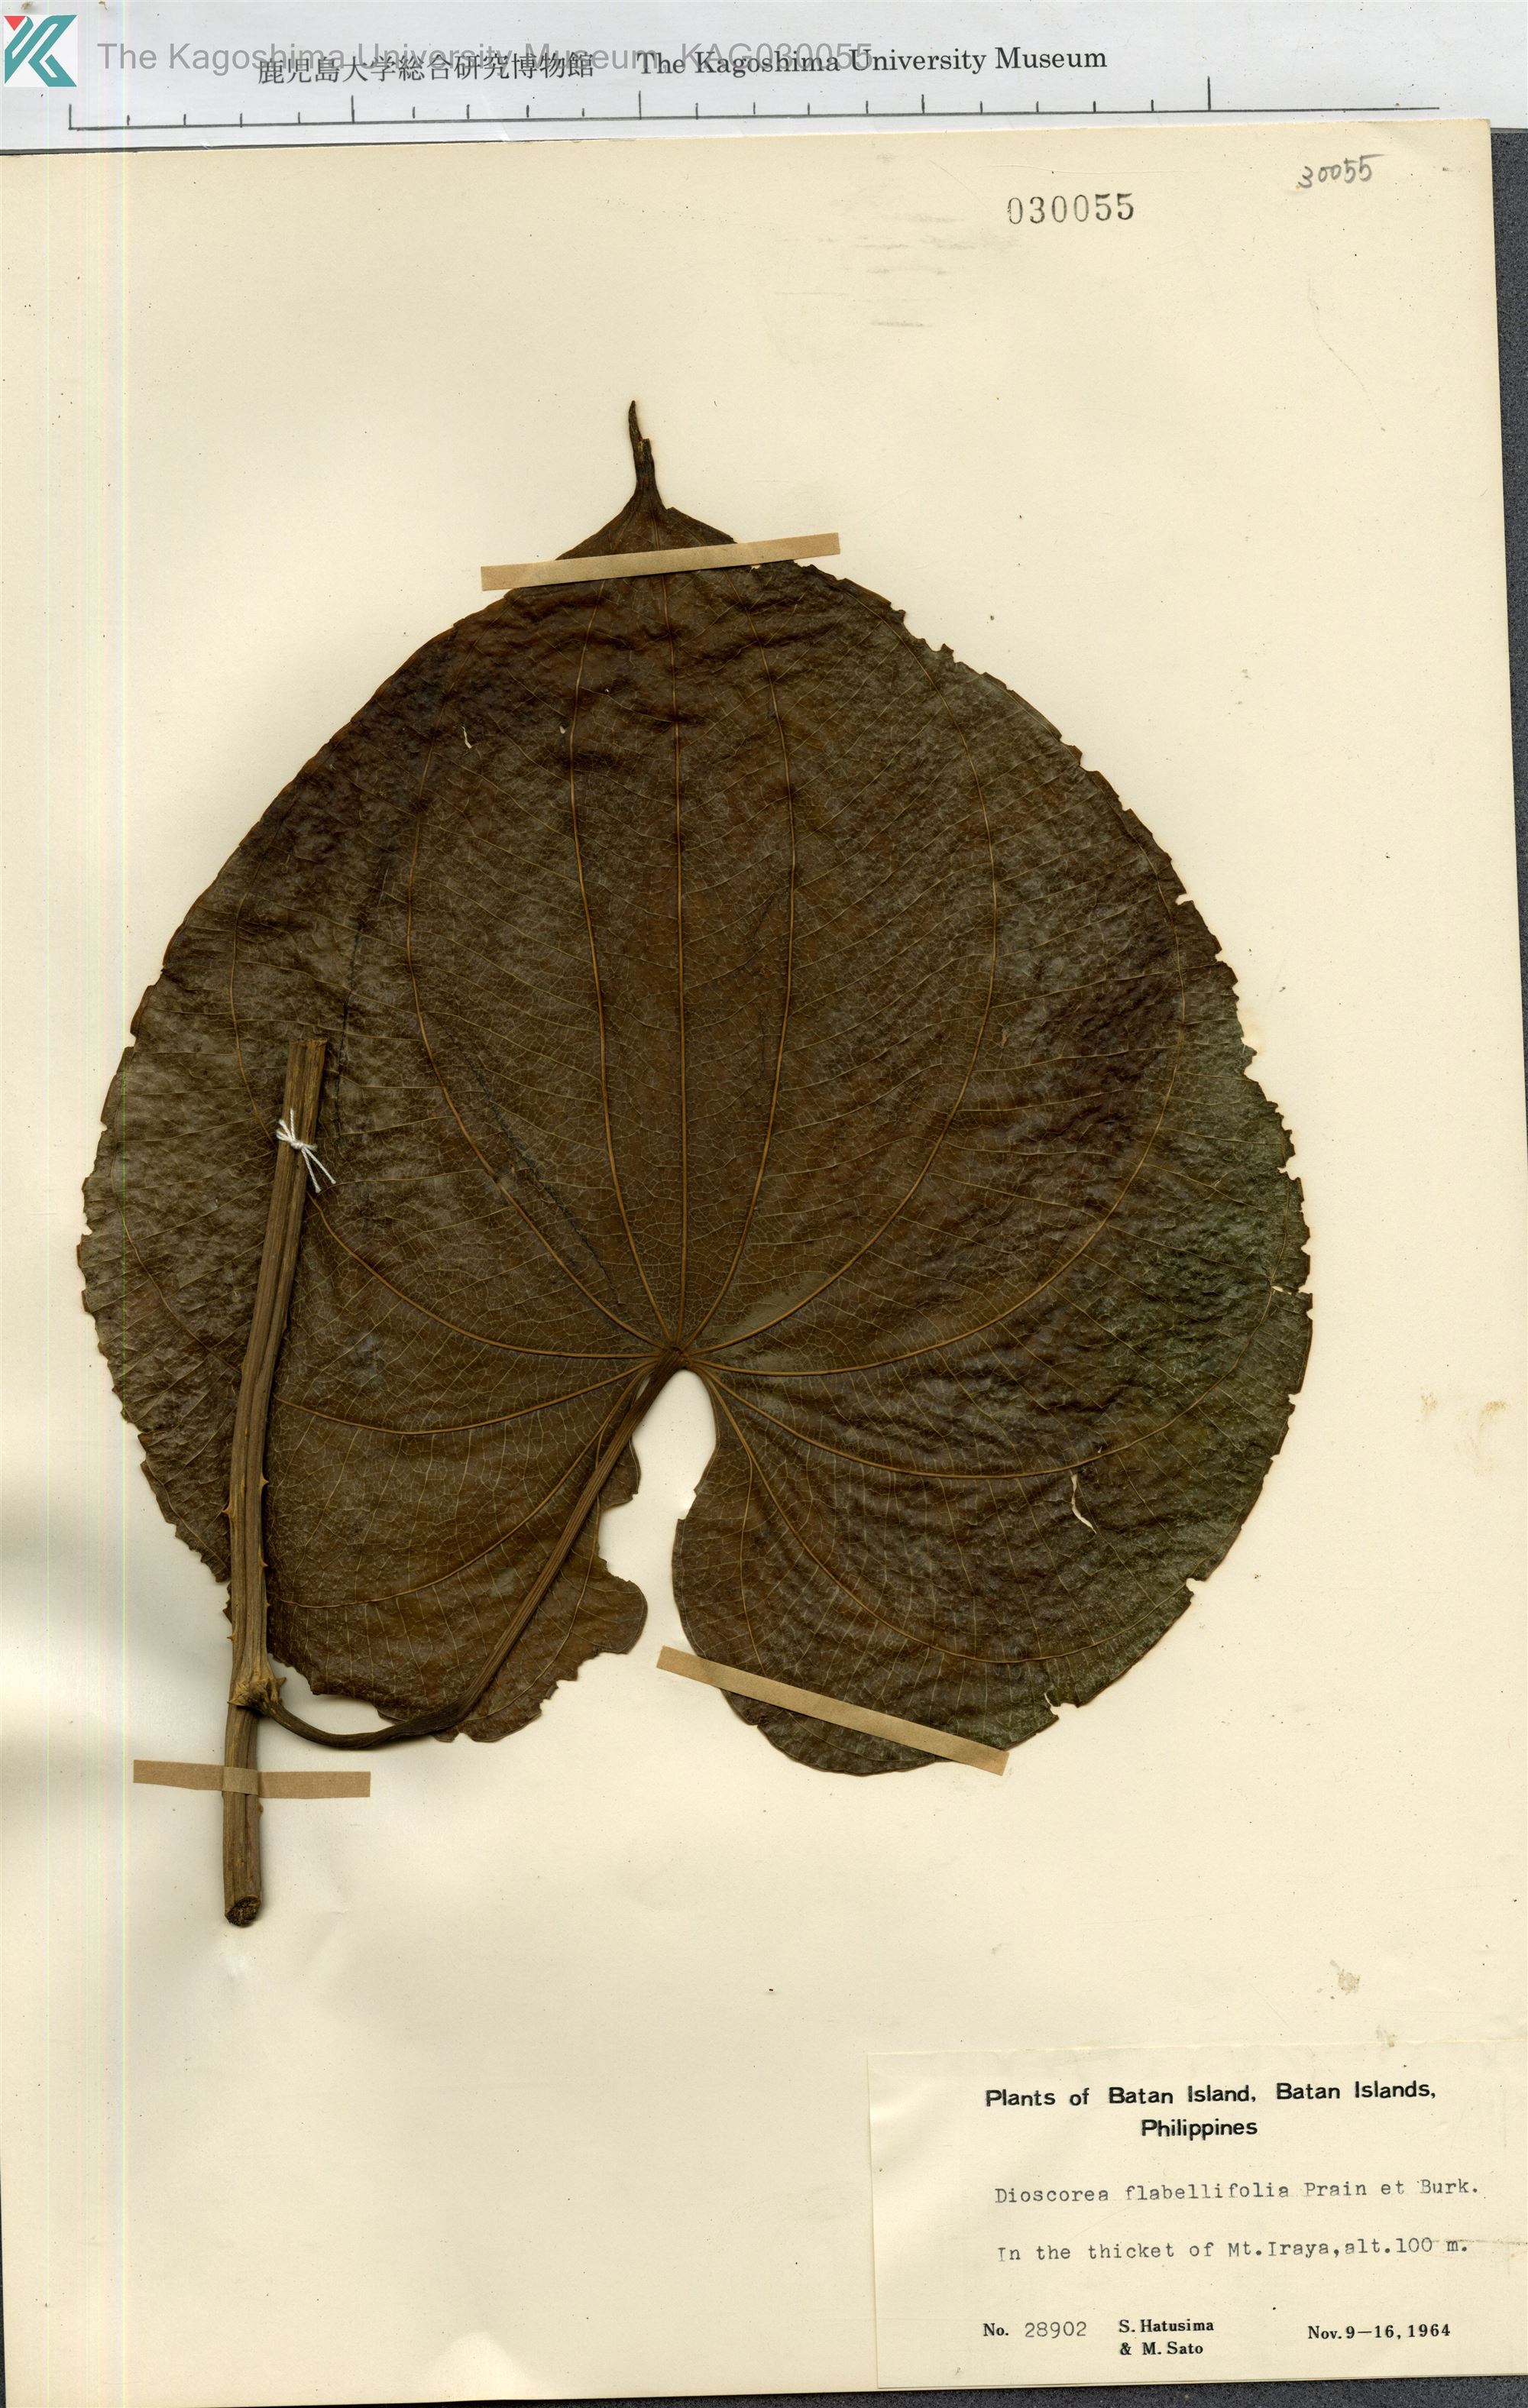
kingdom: Plantae
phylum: Tracheophyta
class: Liliopsida
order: Dioscoreales
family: Dioscoreaceae
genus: Dioscorea
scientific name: Dioscorea flabellifolia
